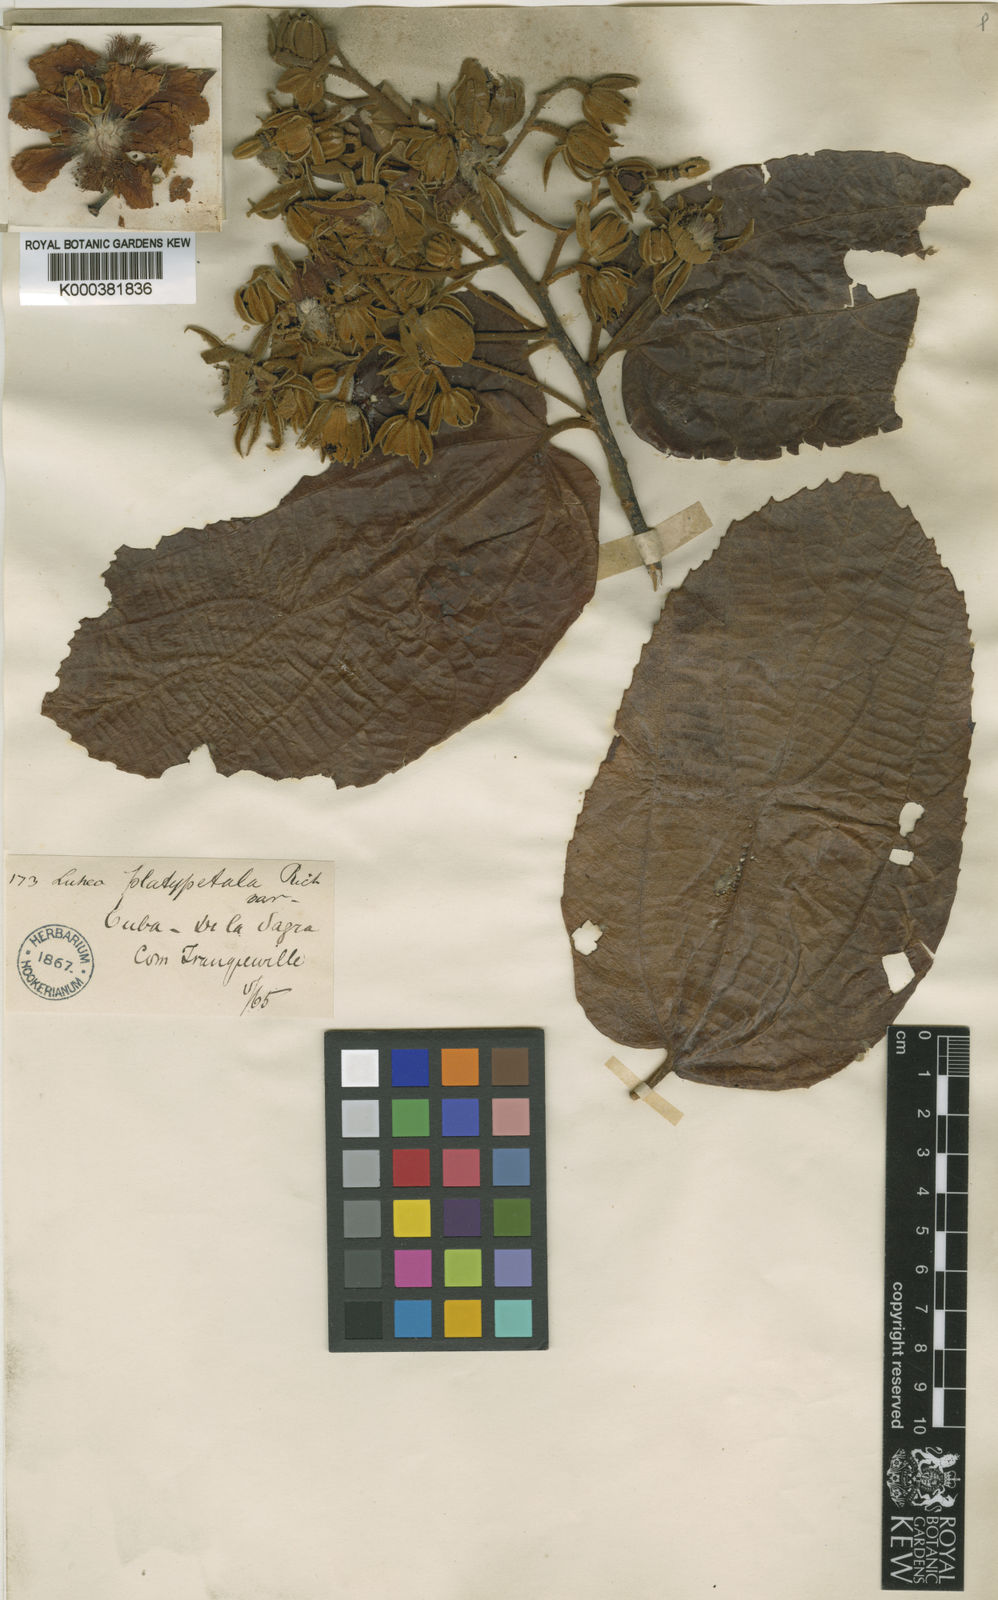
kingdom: Plantae
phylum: Tracheophyta
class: Magnoliopsida
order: Malvales
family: Malvaceae
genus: Luehea
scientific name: Luehea speciosa
